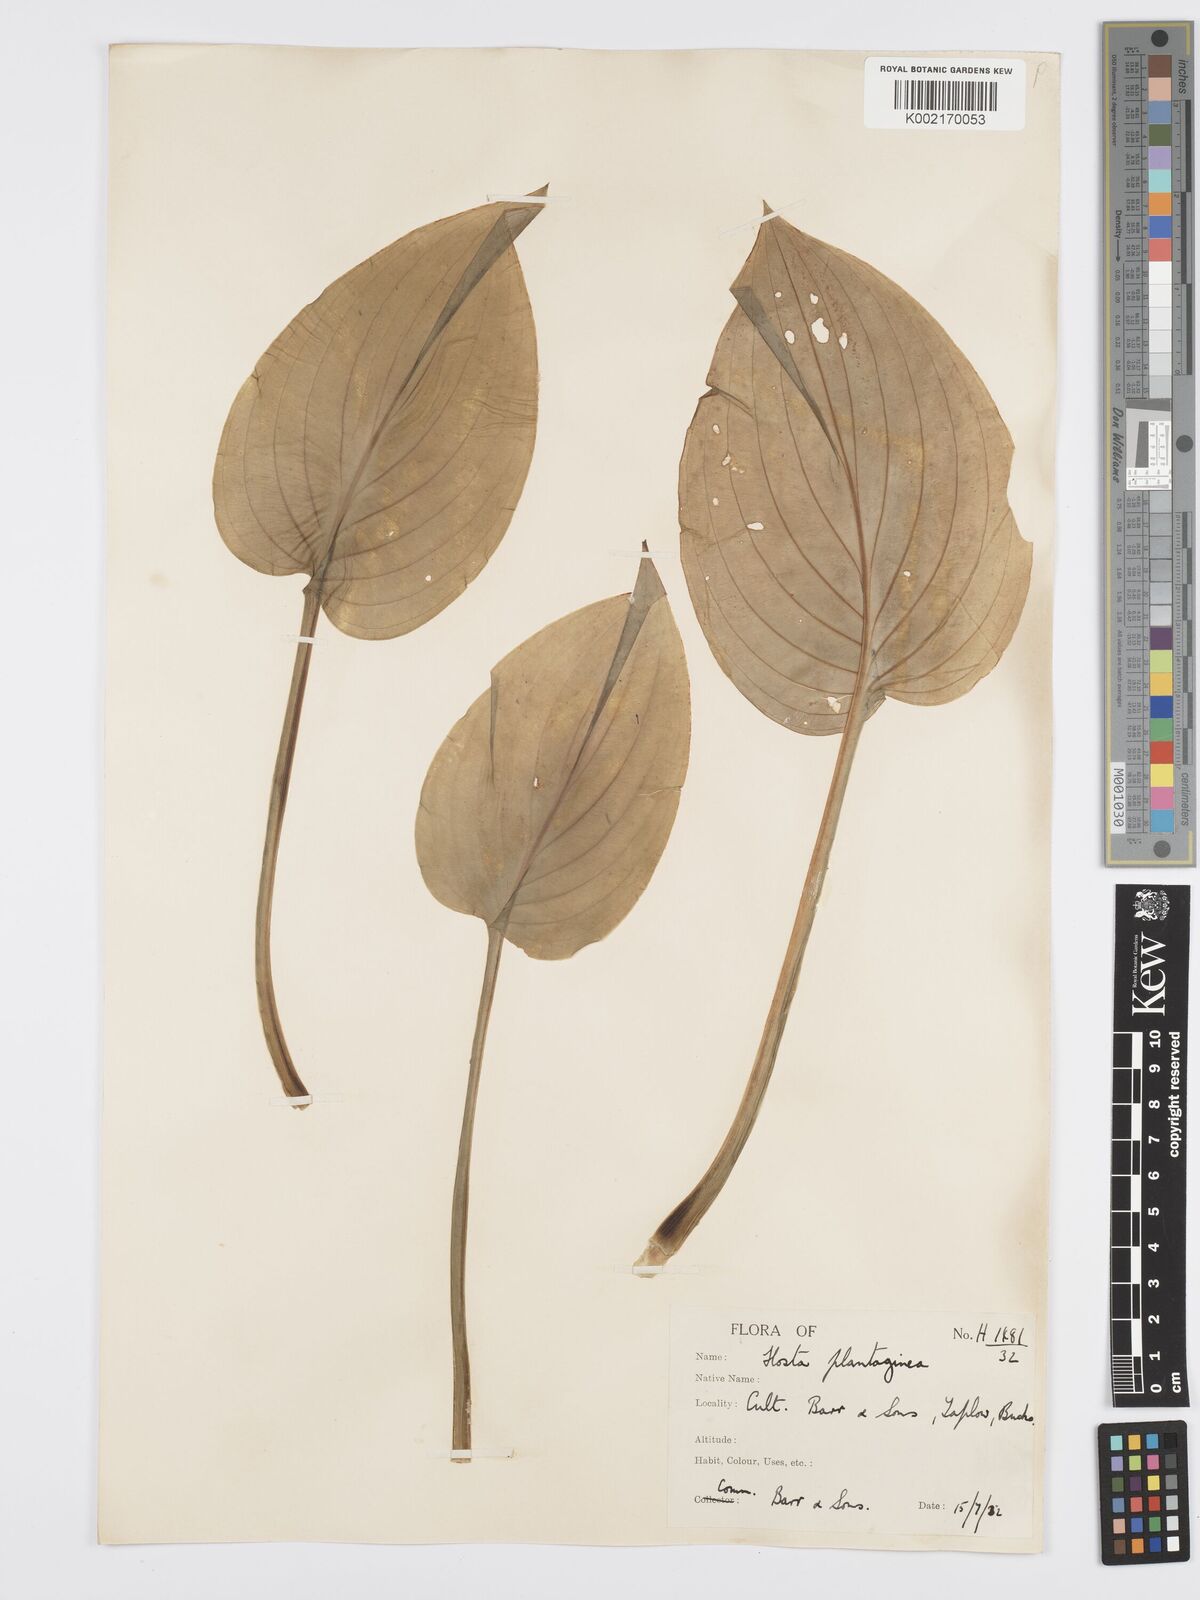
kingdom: Plantae
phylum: Tracheophyta
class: Liliopsida
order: Asparagales
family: Asparagaceae
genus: Hosta
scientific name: Hosta plantaginea
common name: August-lily
